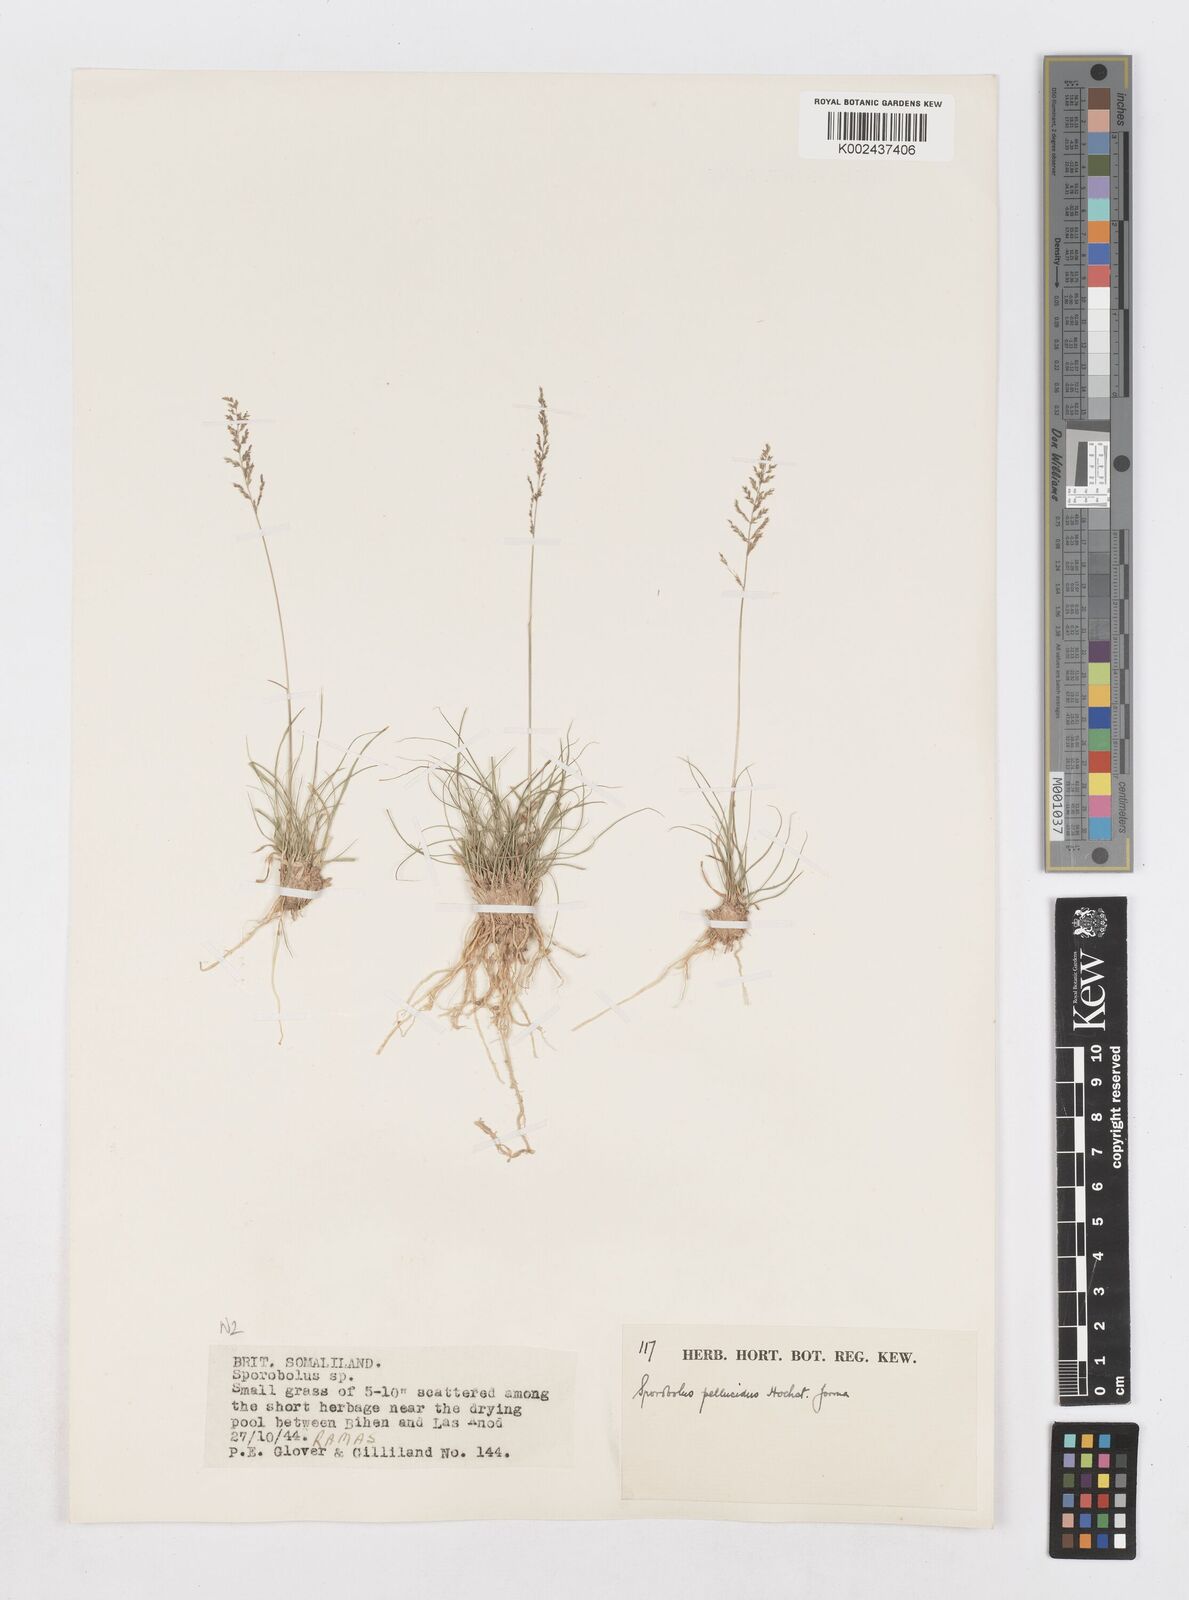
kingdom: Plantae
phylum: Tracheophyta
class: Liliopsida
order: Poales
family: Poaceae
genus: Sporobolus
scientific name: Sporobolus pellucidus
